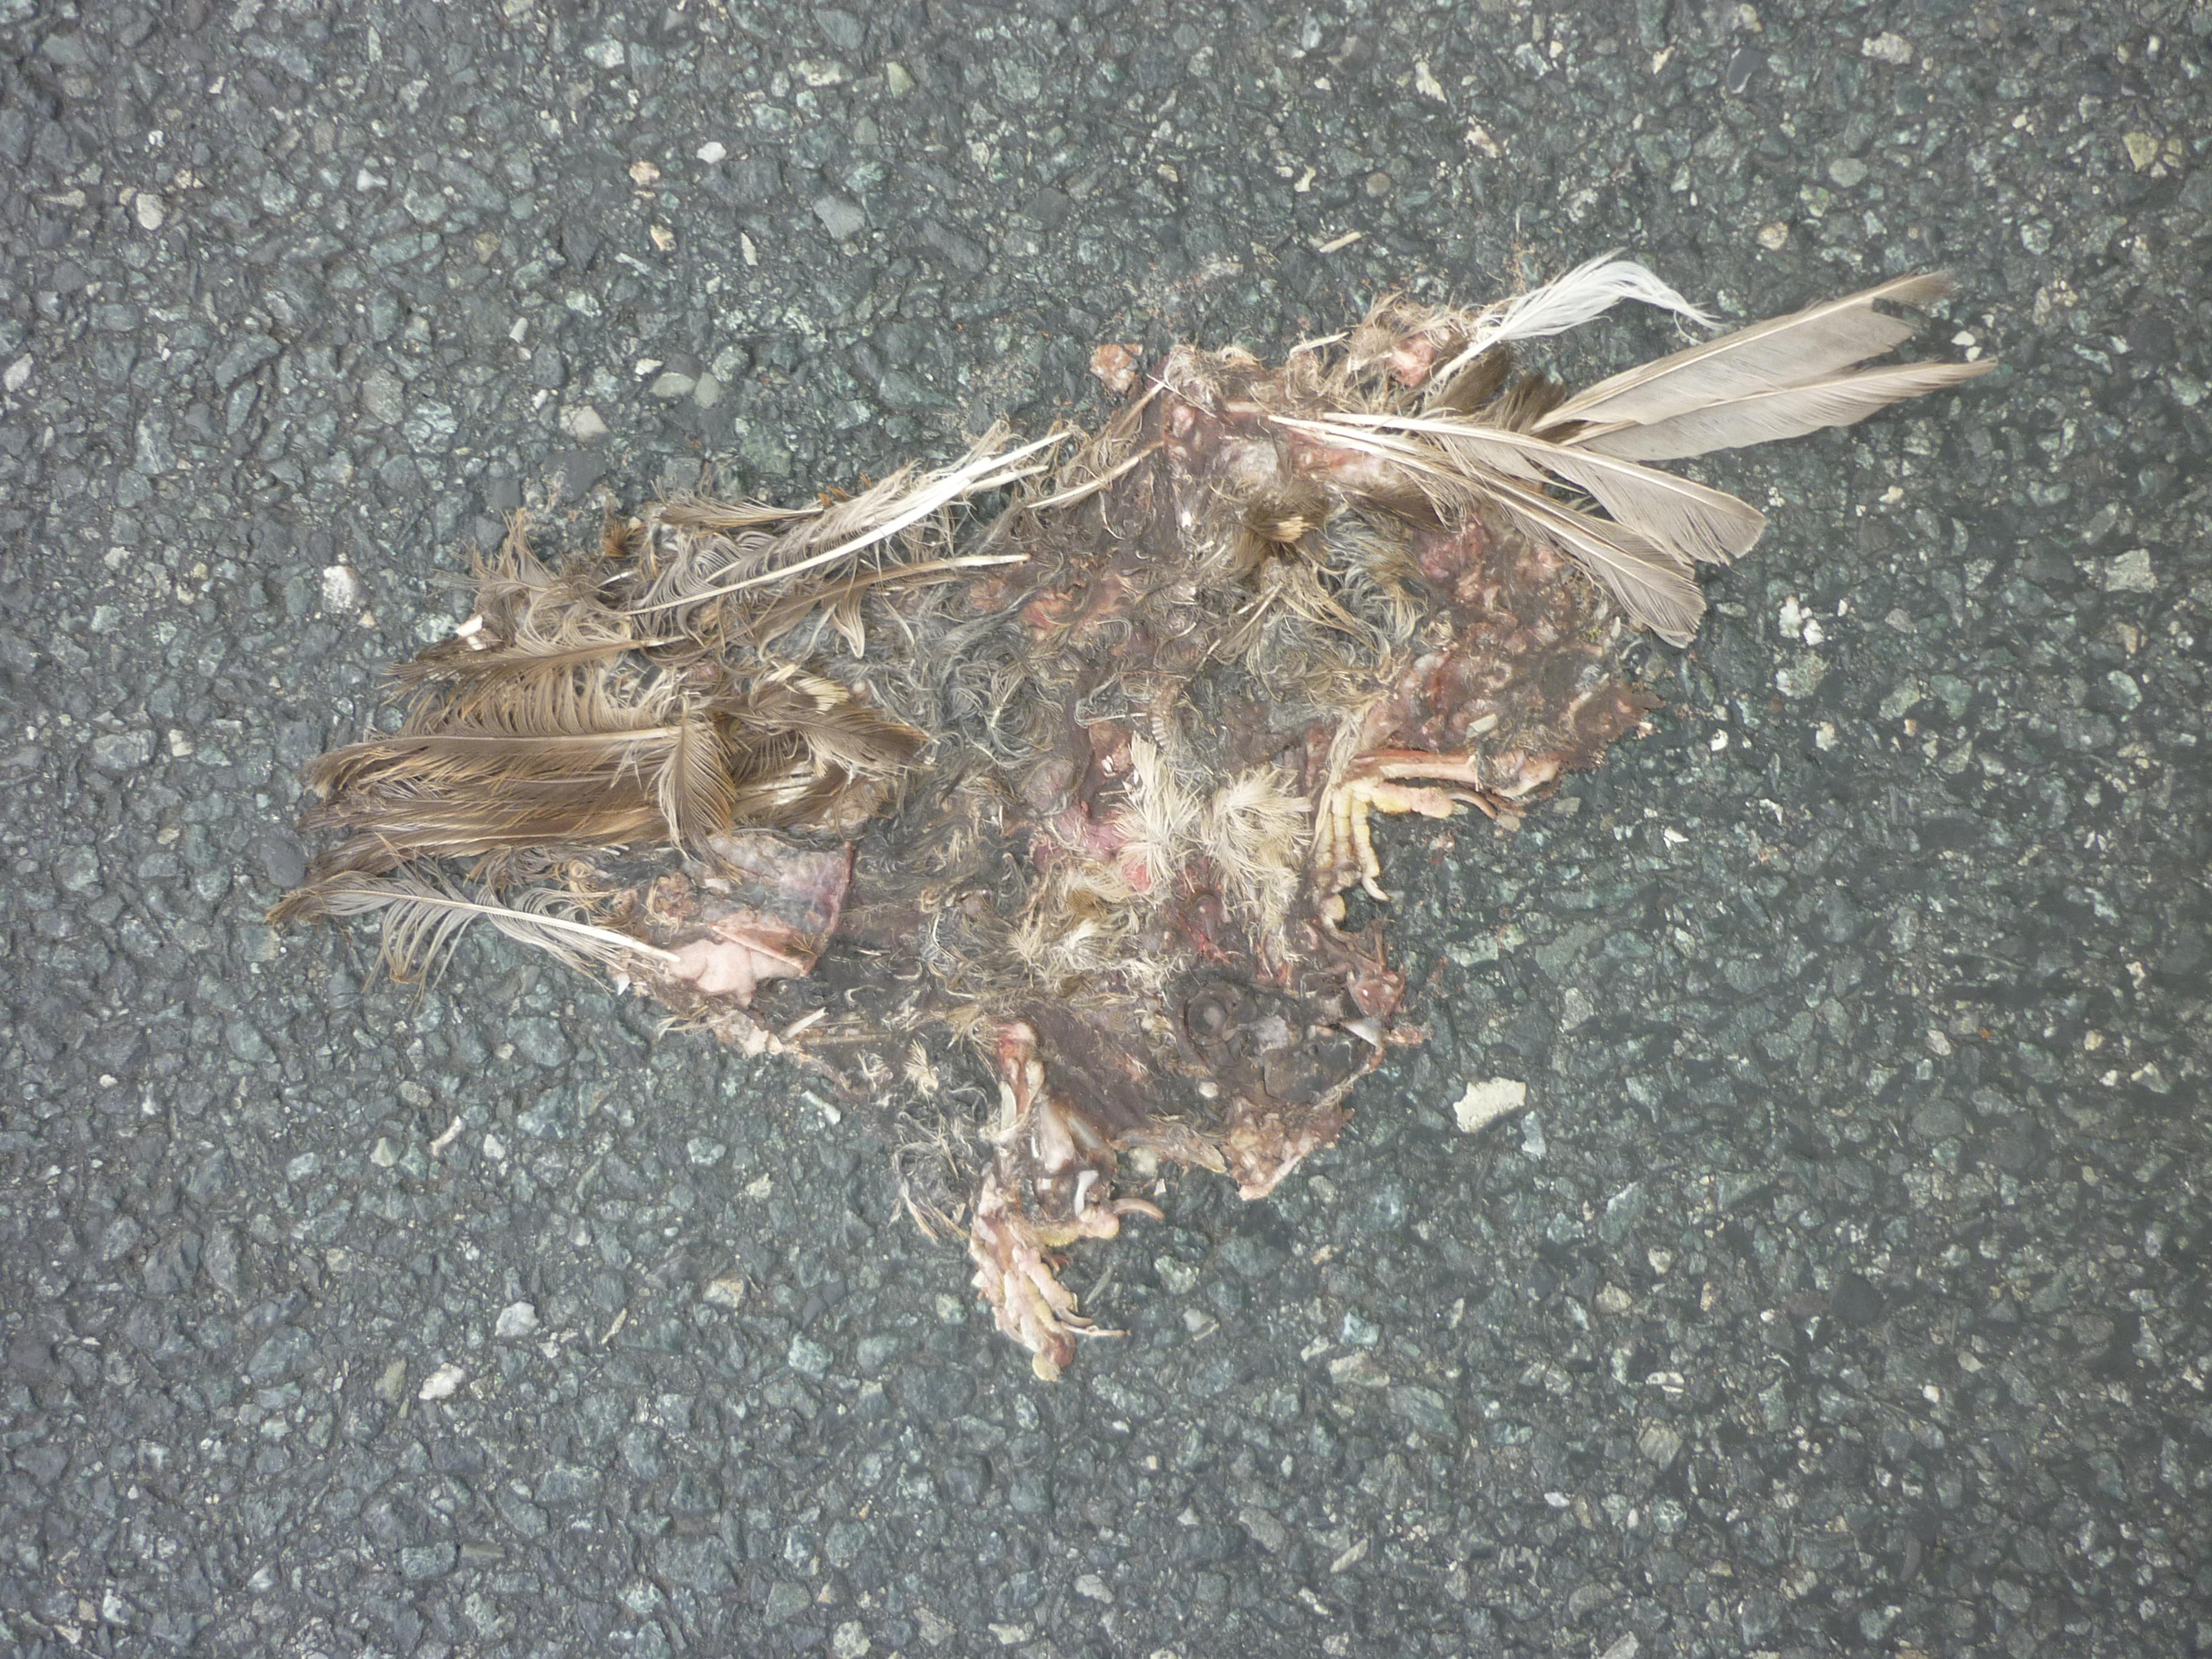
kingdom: Animalia
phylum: Chordata
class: Aves
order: Passeriformes
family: Passeridae
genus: Passer
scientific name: Passer domesticus
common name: House sparrow
